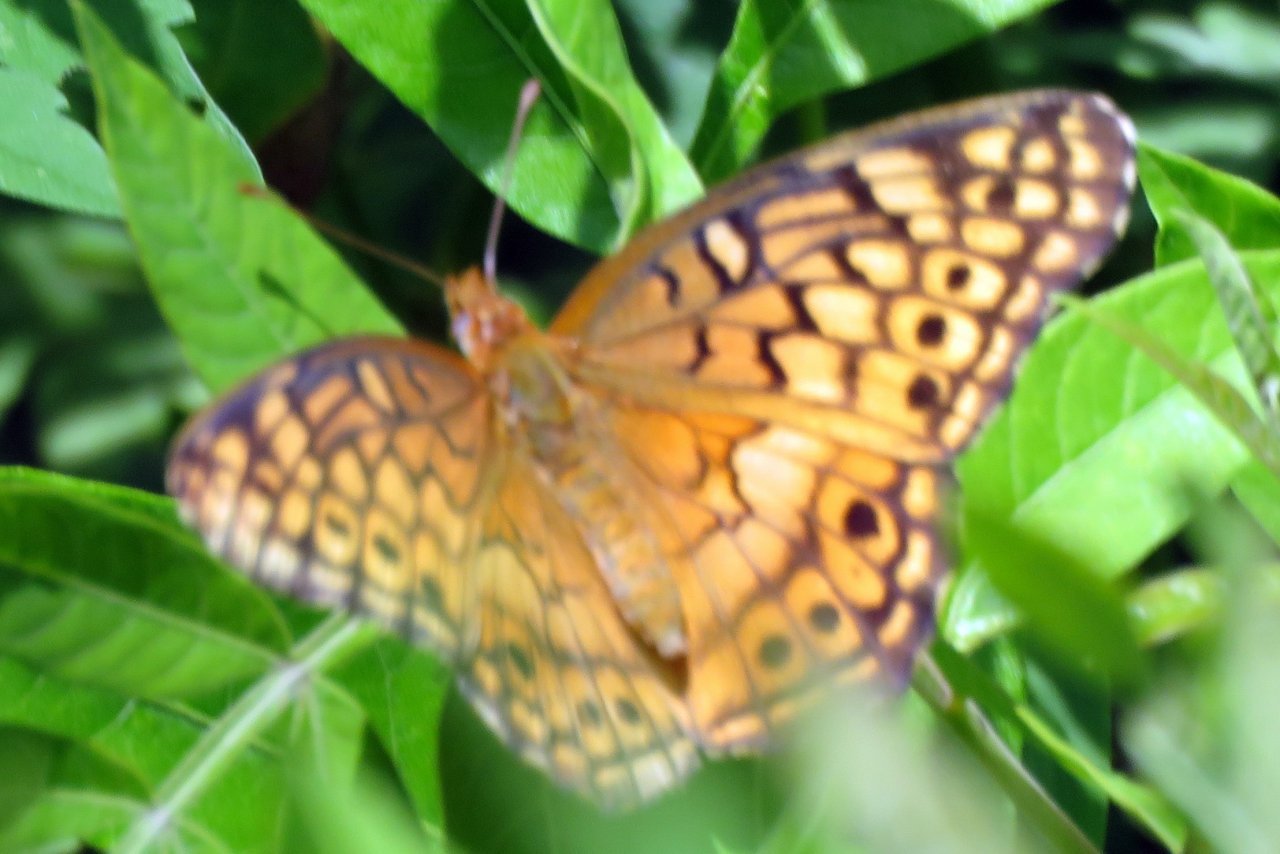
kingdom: Animalia
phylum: Arthropoda
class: Insecta
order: Lepidoptera
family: Nymphalidae
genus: Euptoieta
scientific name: Euptoieta claudia
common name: Variegated Fritillary
